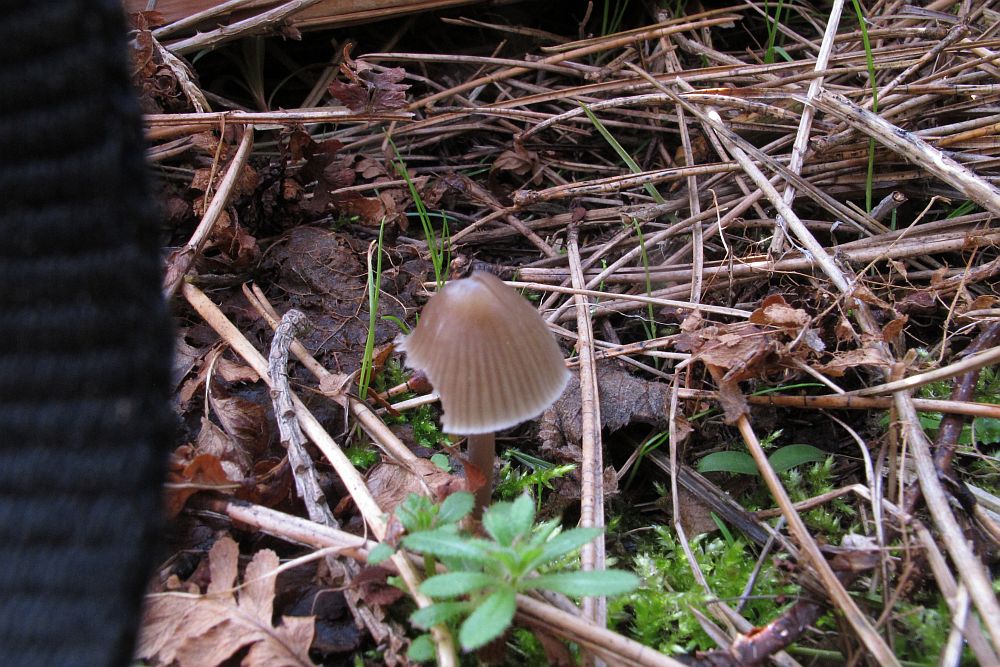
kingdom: Fungi
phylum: Basidiomycota
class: Agaricomycetes
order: Agaricales
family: Mycenaceae
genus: Mycena
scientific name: Mycena abramsii
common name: sommer-huesvamp
